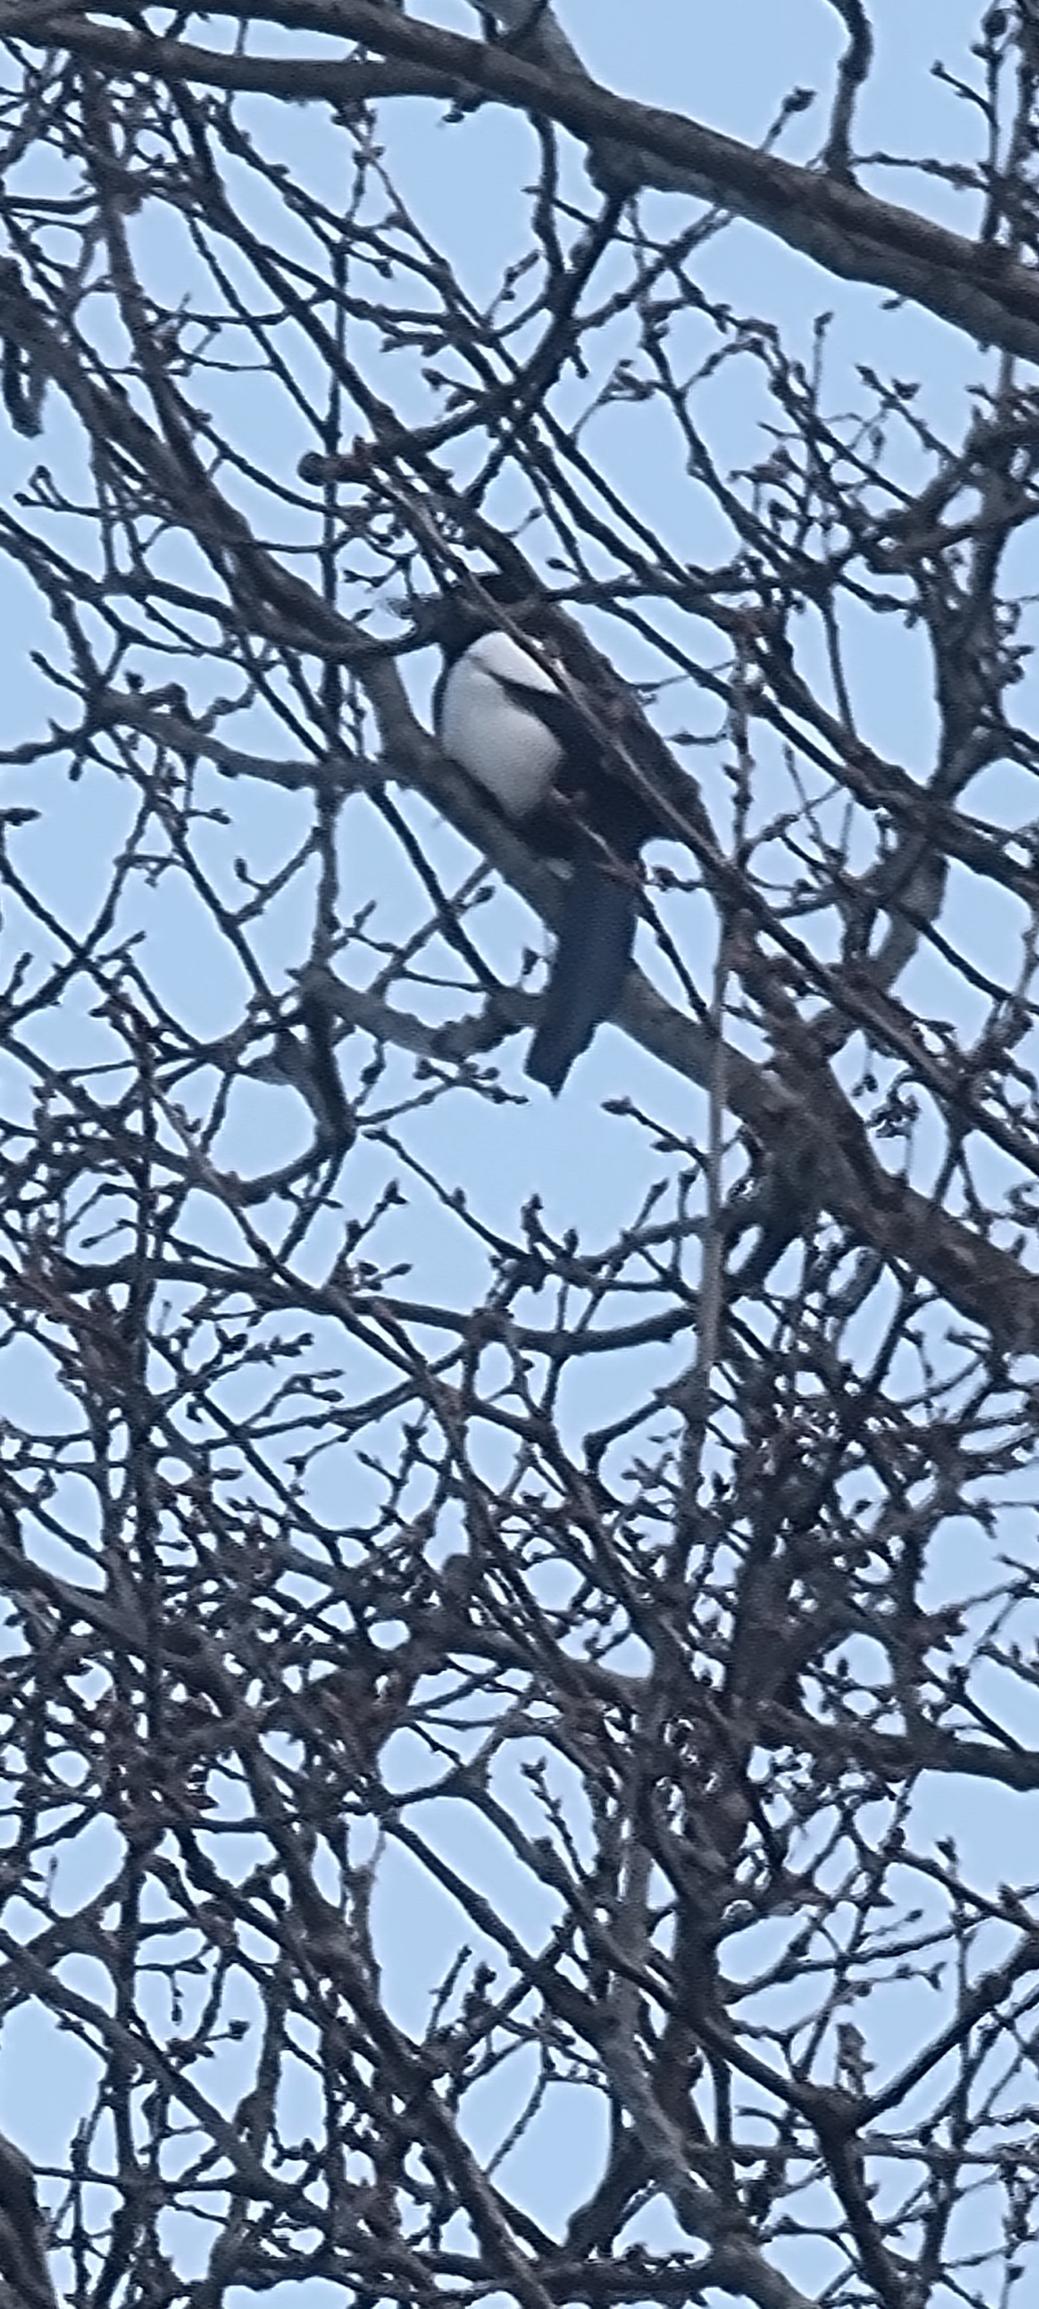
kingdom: Animalia
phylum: Chordata
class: Aves
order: Passeriformes
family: Corvidae
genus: Pica
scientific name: Pica pica
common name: Husskade
